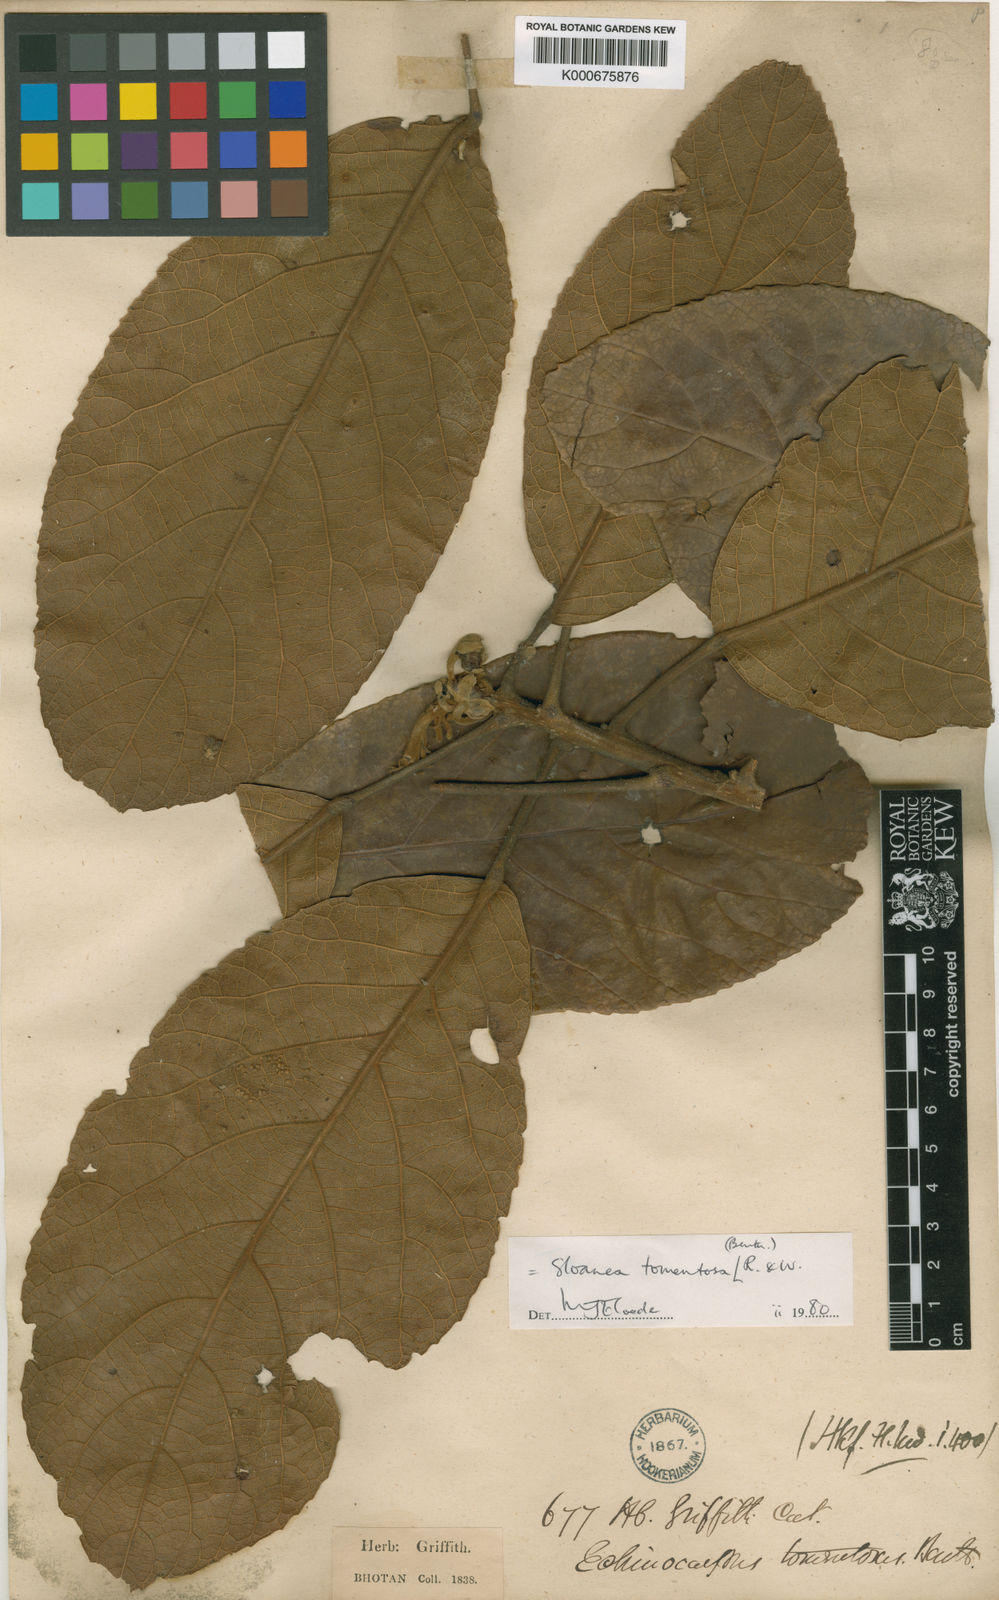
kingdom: Plantae
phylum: Tracheophyta
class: Magnoliopsida
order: Oxalidales
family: Elaeocarpaceae
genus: Sloanea
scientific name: Sloanea tomentosa
